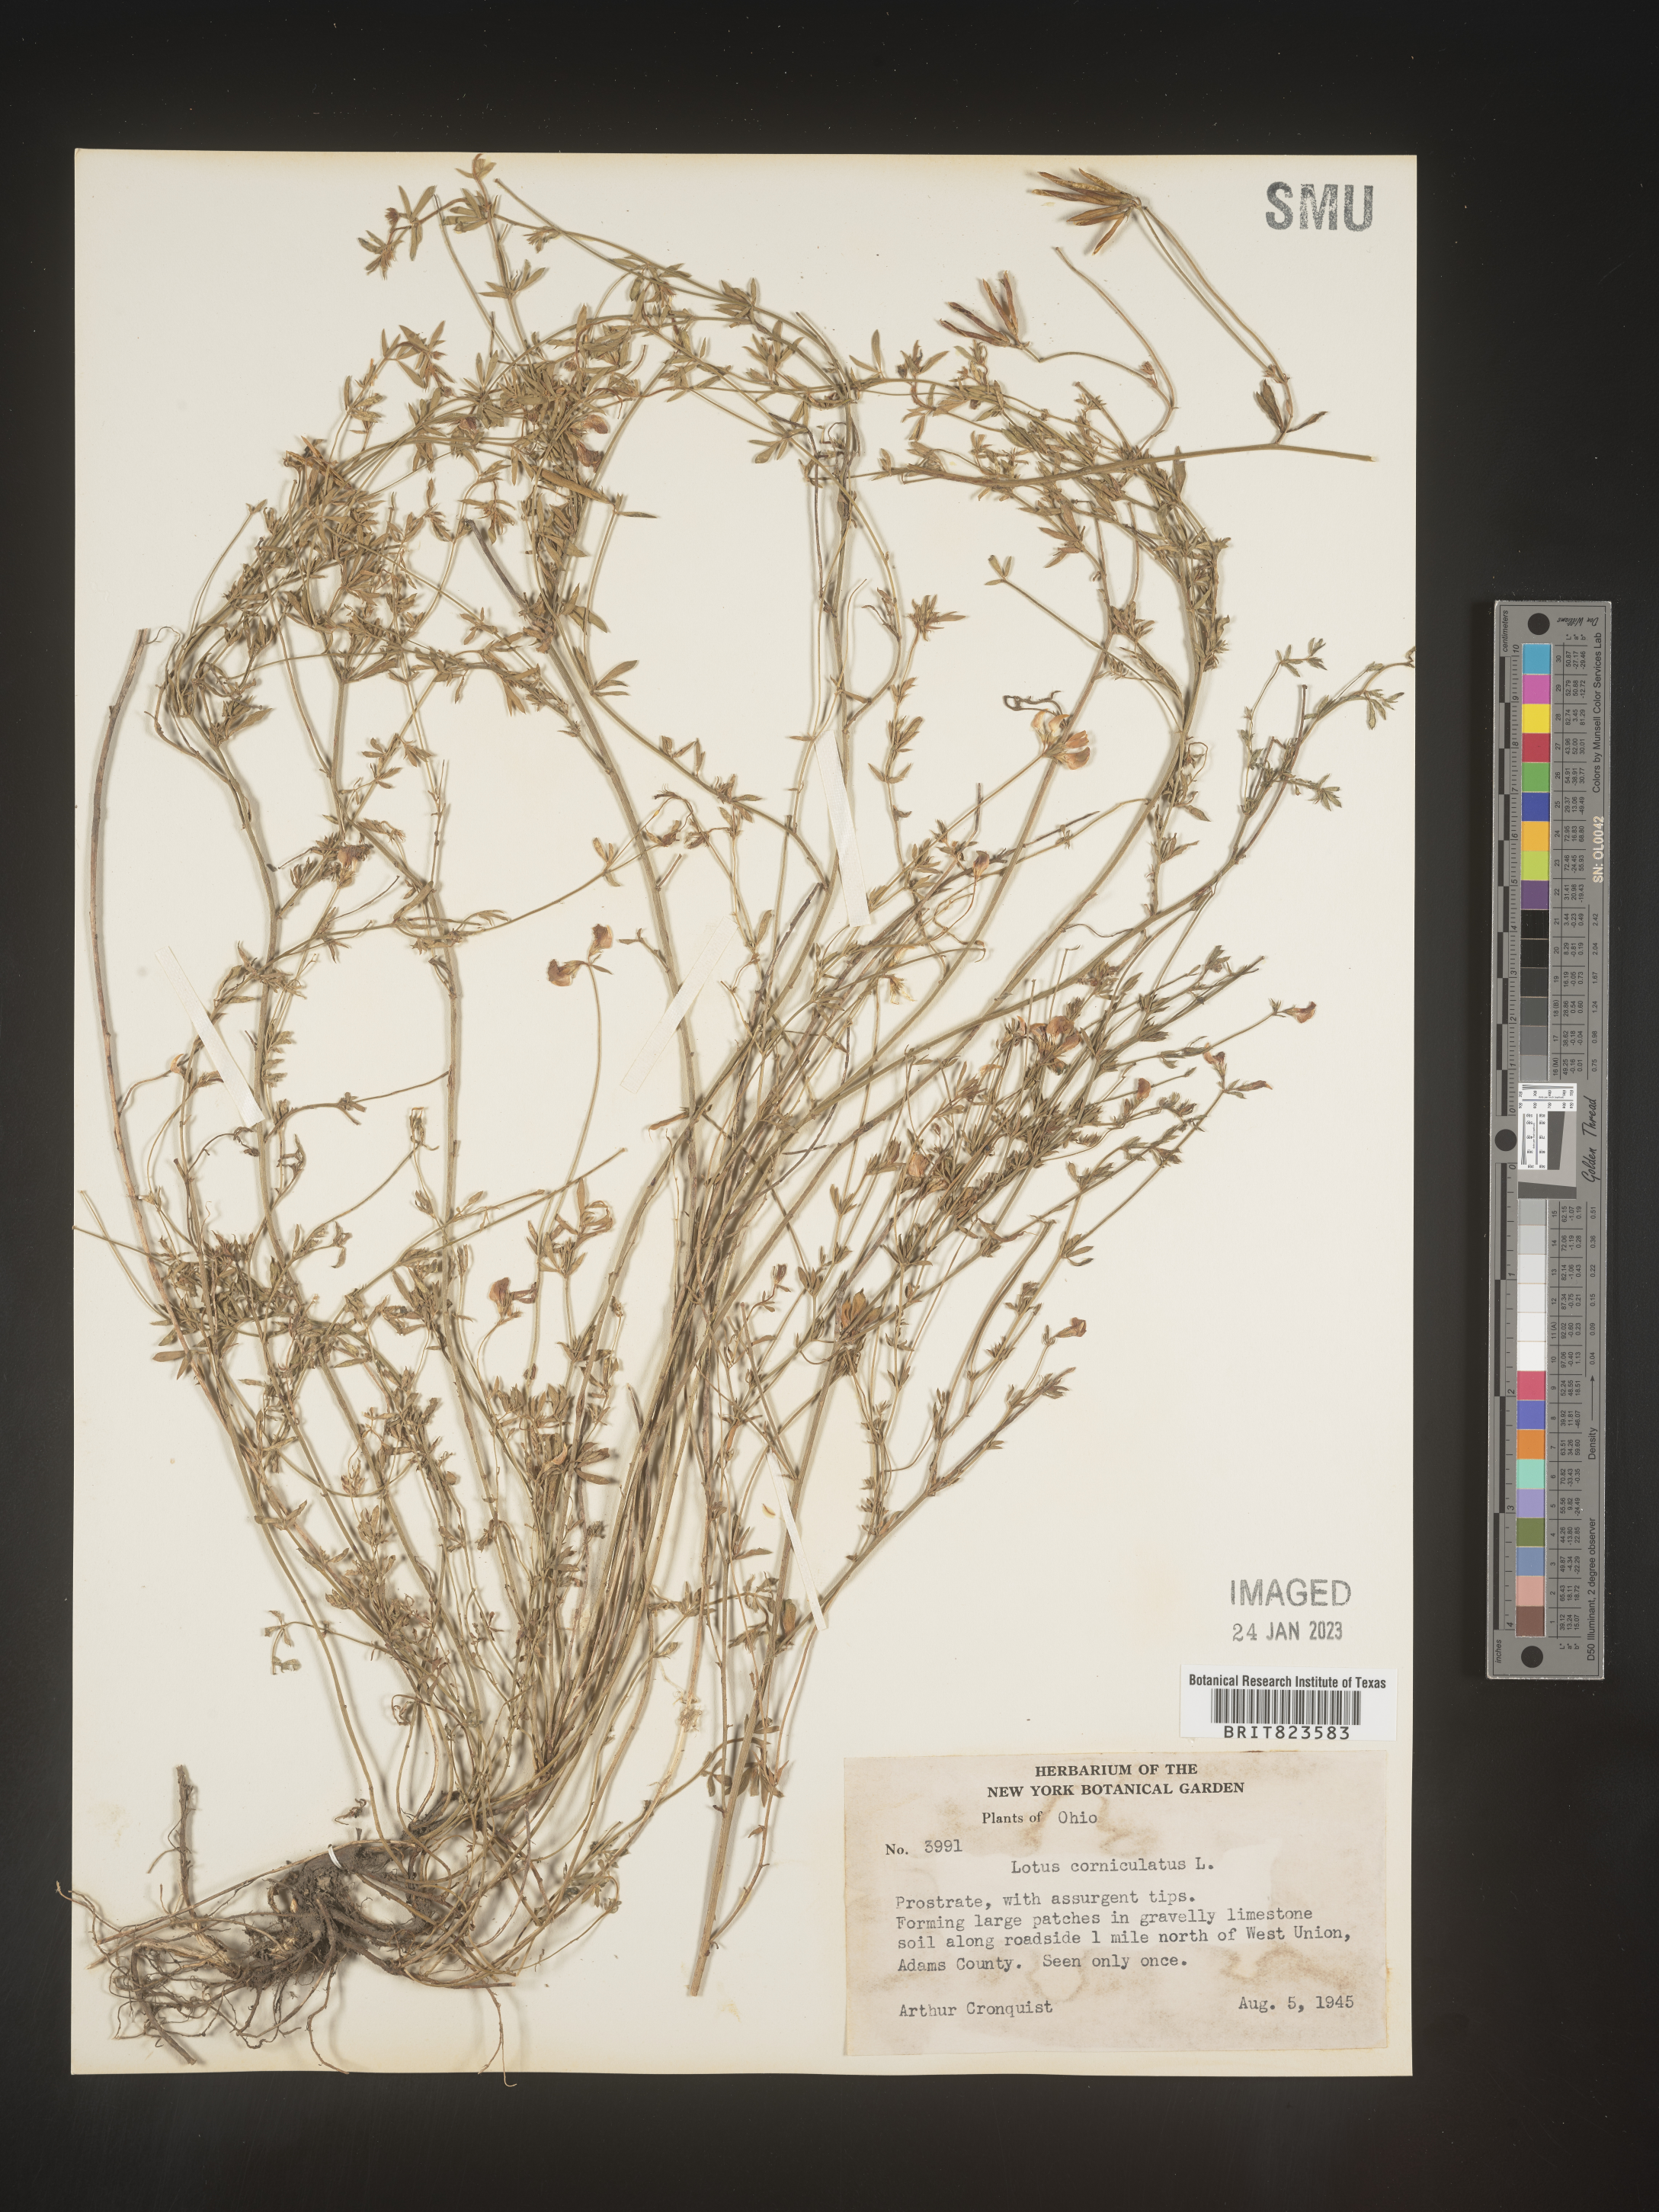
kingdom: Plantae
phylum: Tracheophyta
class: Magnoliopsida
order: Fabales
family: Fabaceae
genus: Lotus
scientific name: Lotus corniculatus
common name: Common bird's-foot-trefoil
